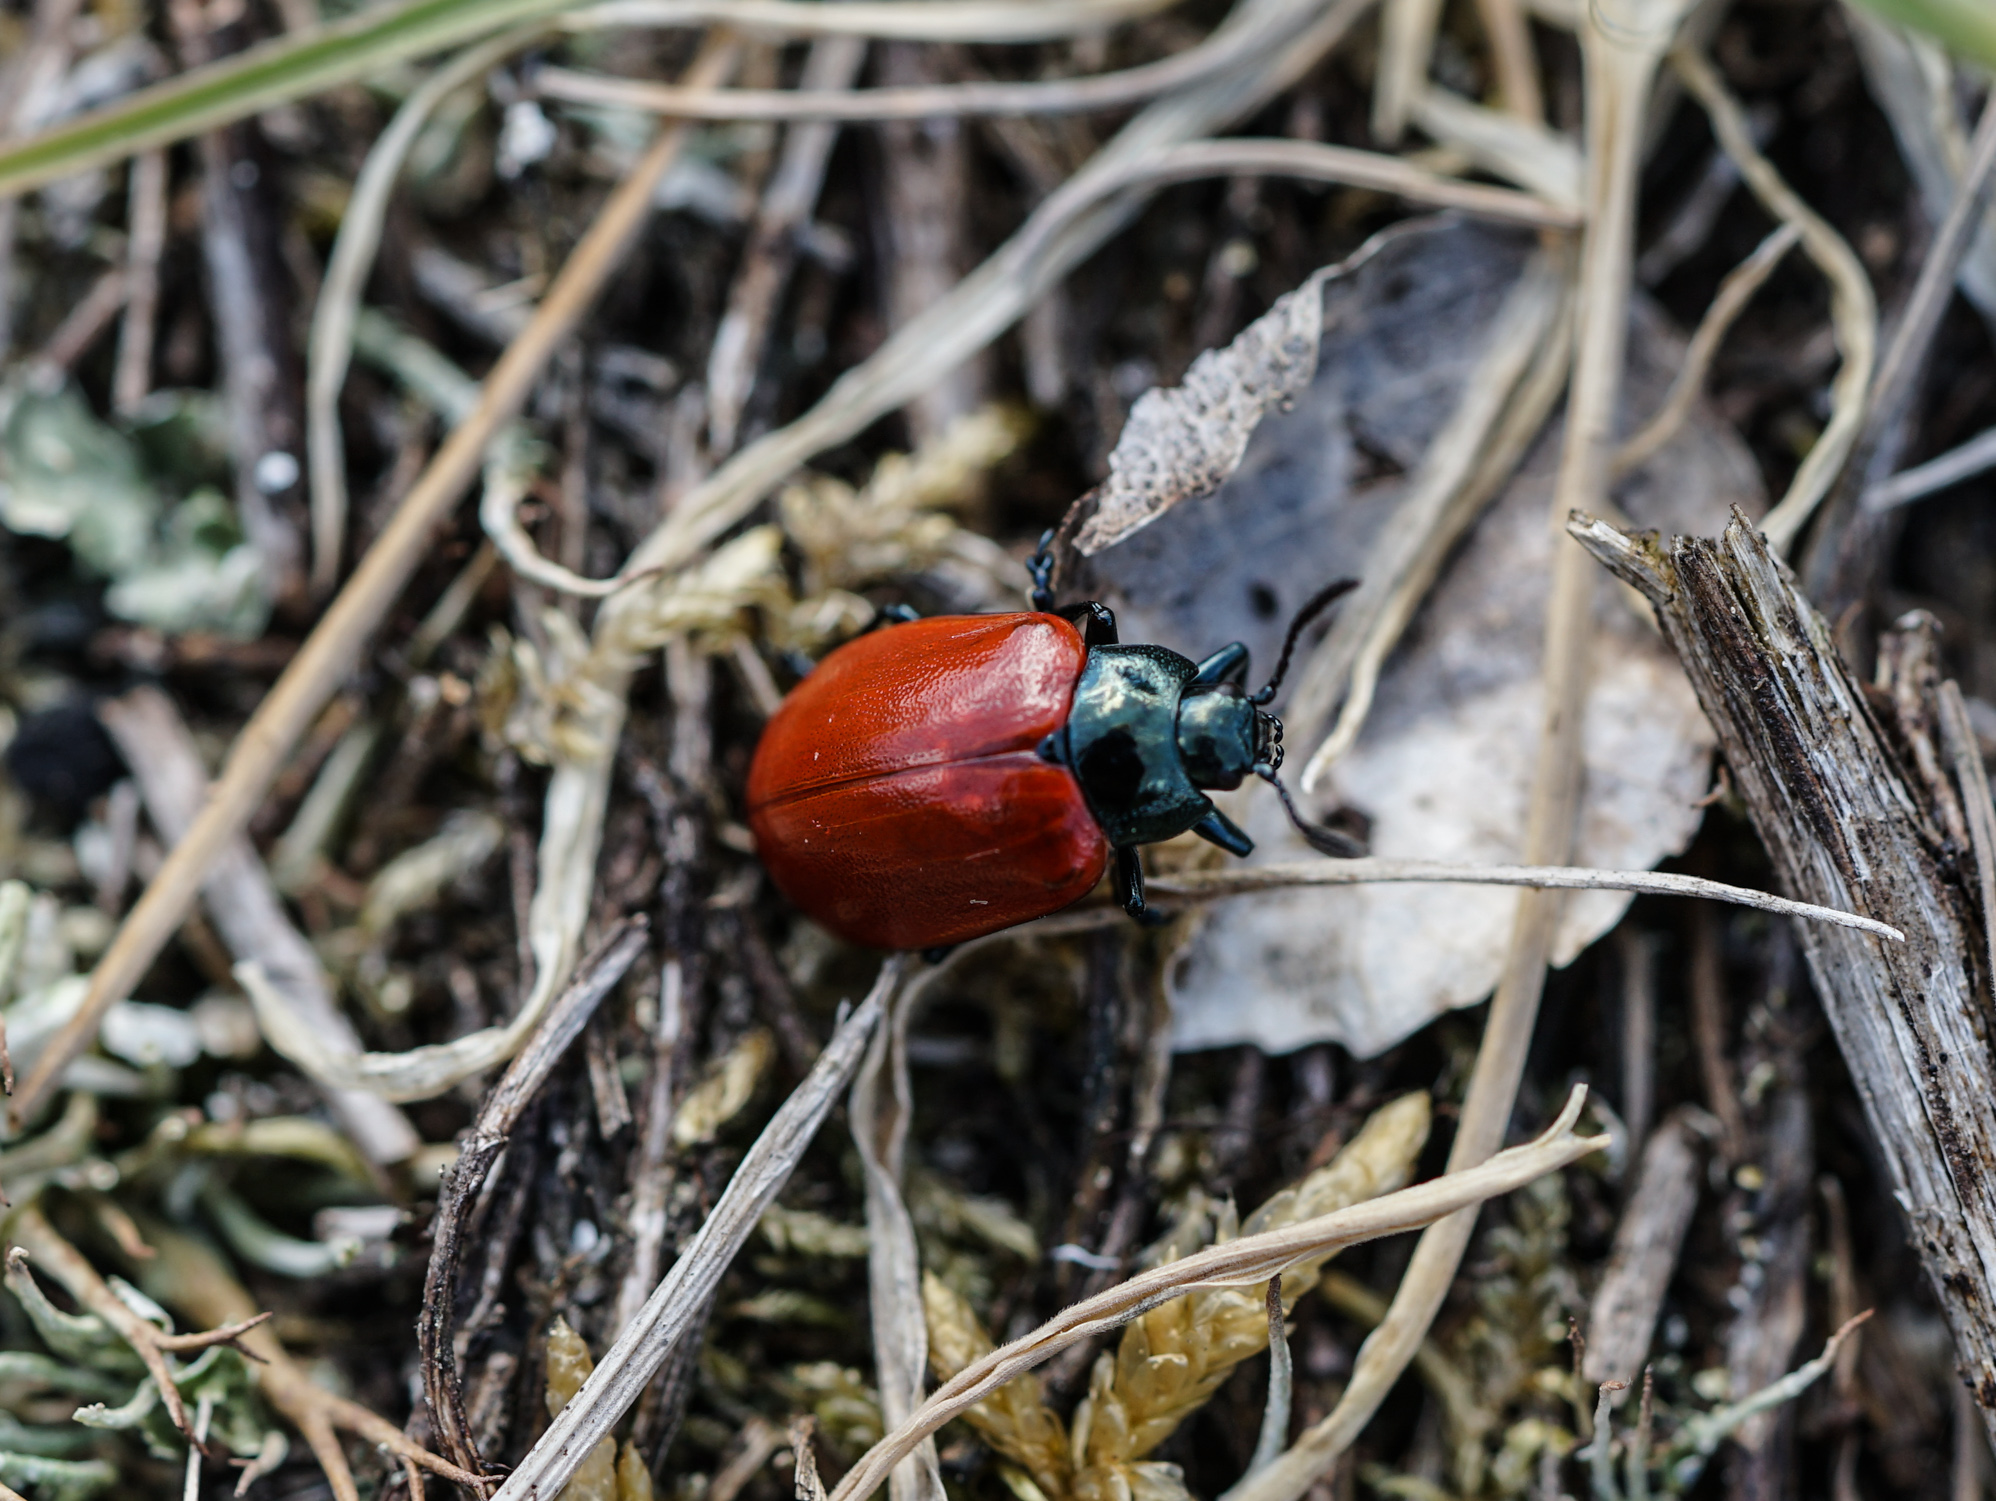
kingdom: Animalia
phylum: Arthropoda
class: Insecta
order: Coleoptera
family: Chrysomelidae
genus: Chrysomela
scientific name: Chrysomela populi
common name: Red poplar leaf beetle
